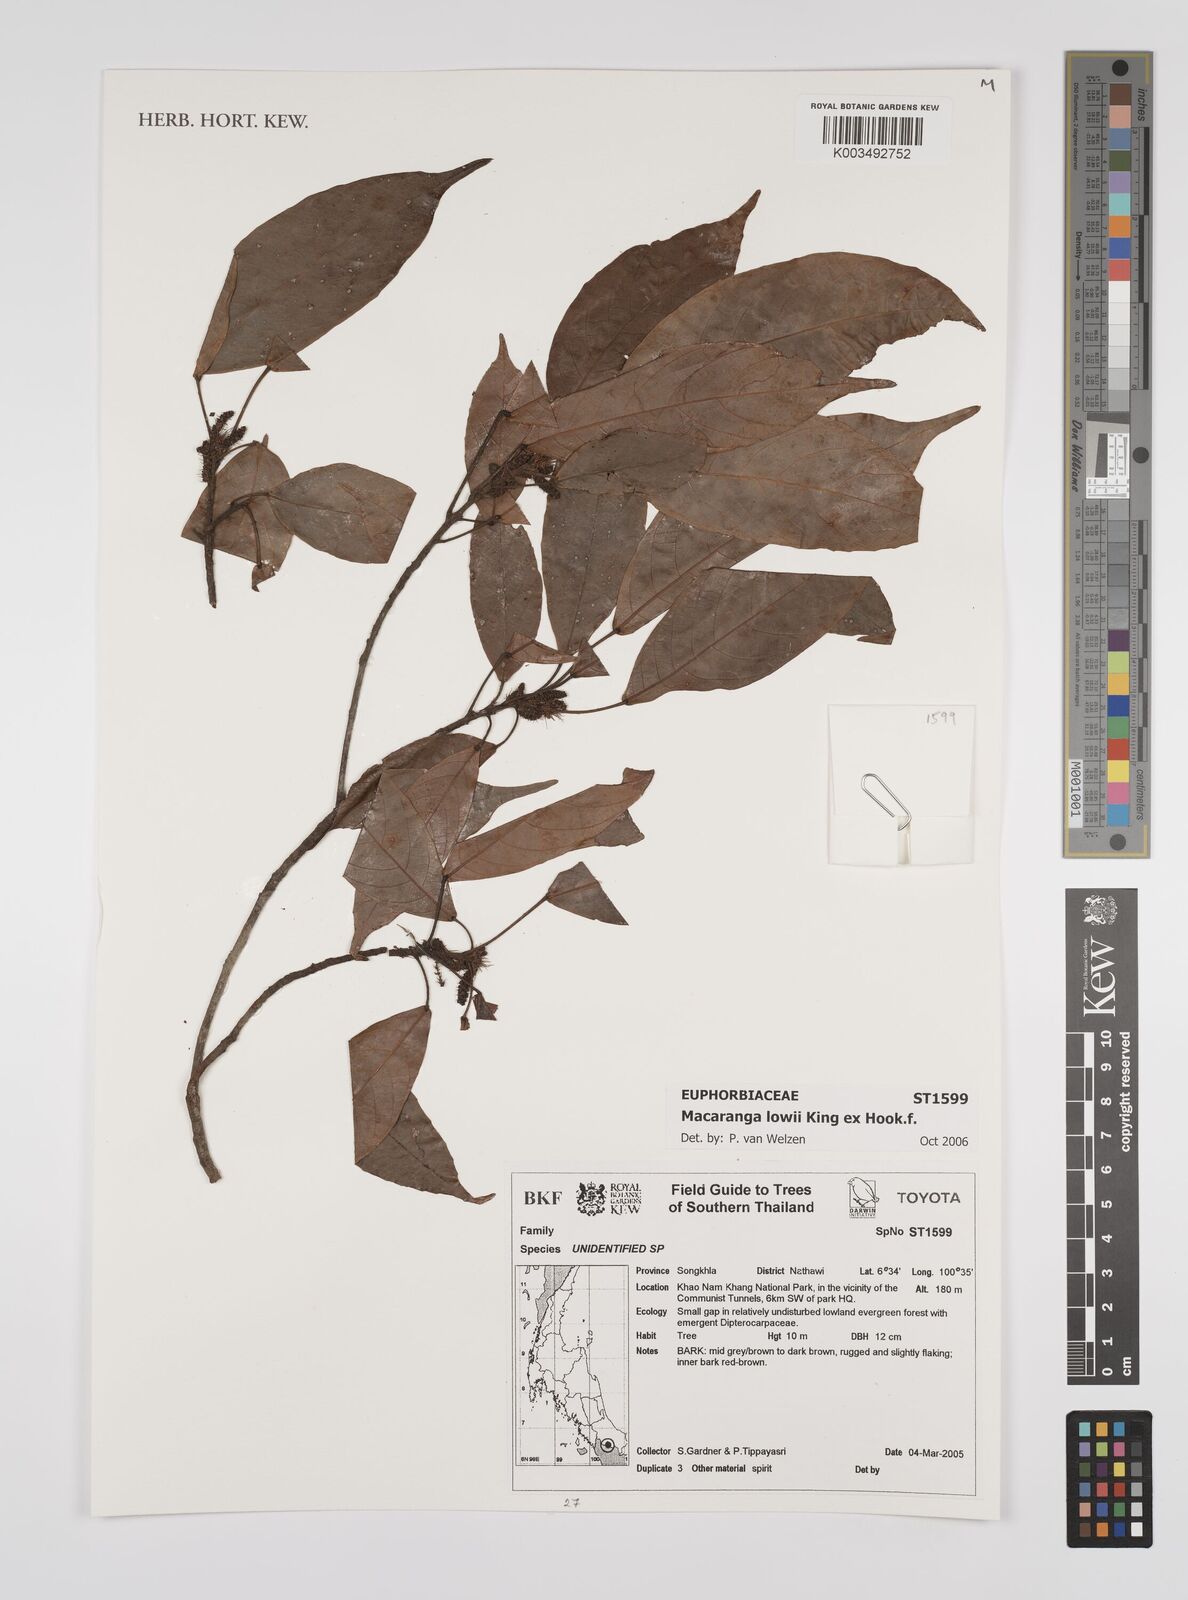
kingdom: Plantae
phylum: Tracheophyta
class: Magnoliopsida
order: Malpighiales
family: Euphorbiaceae
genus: Macaranga
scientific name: Macaranga lowii
